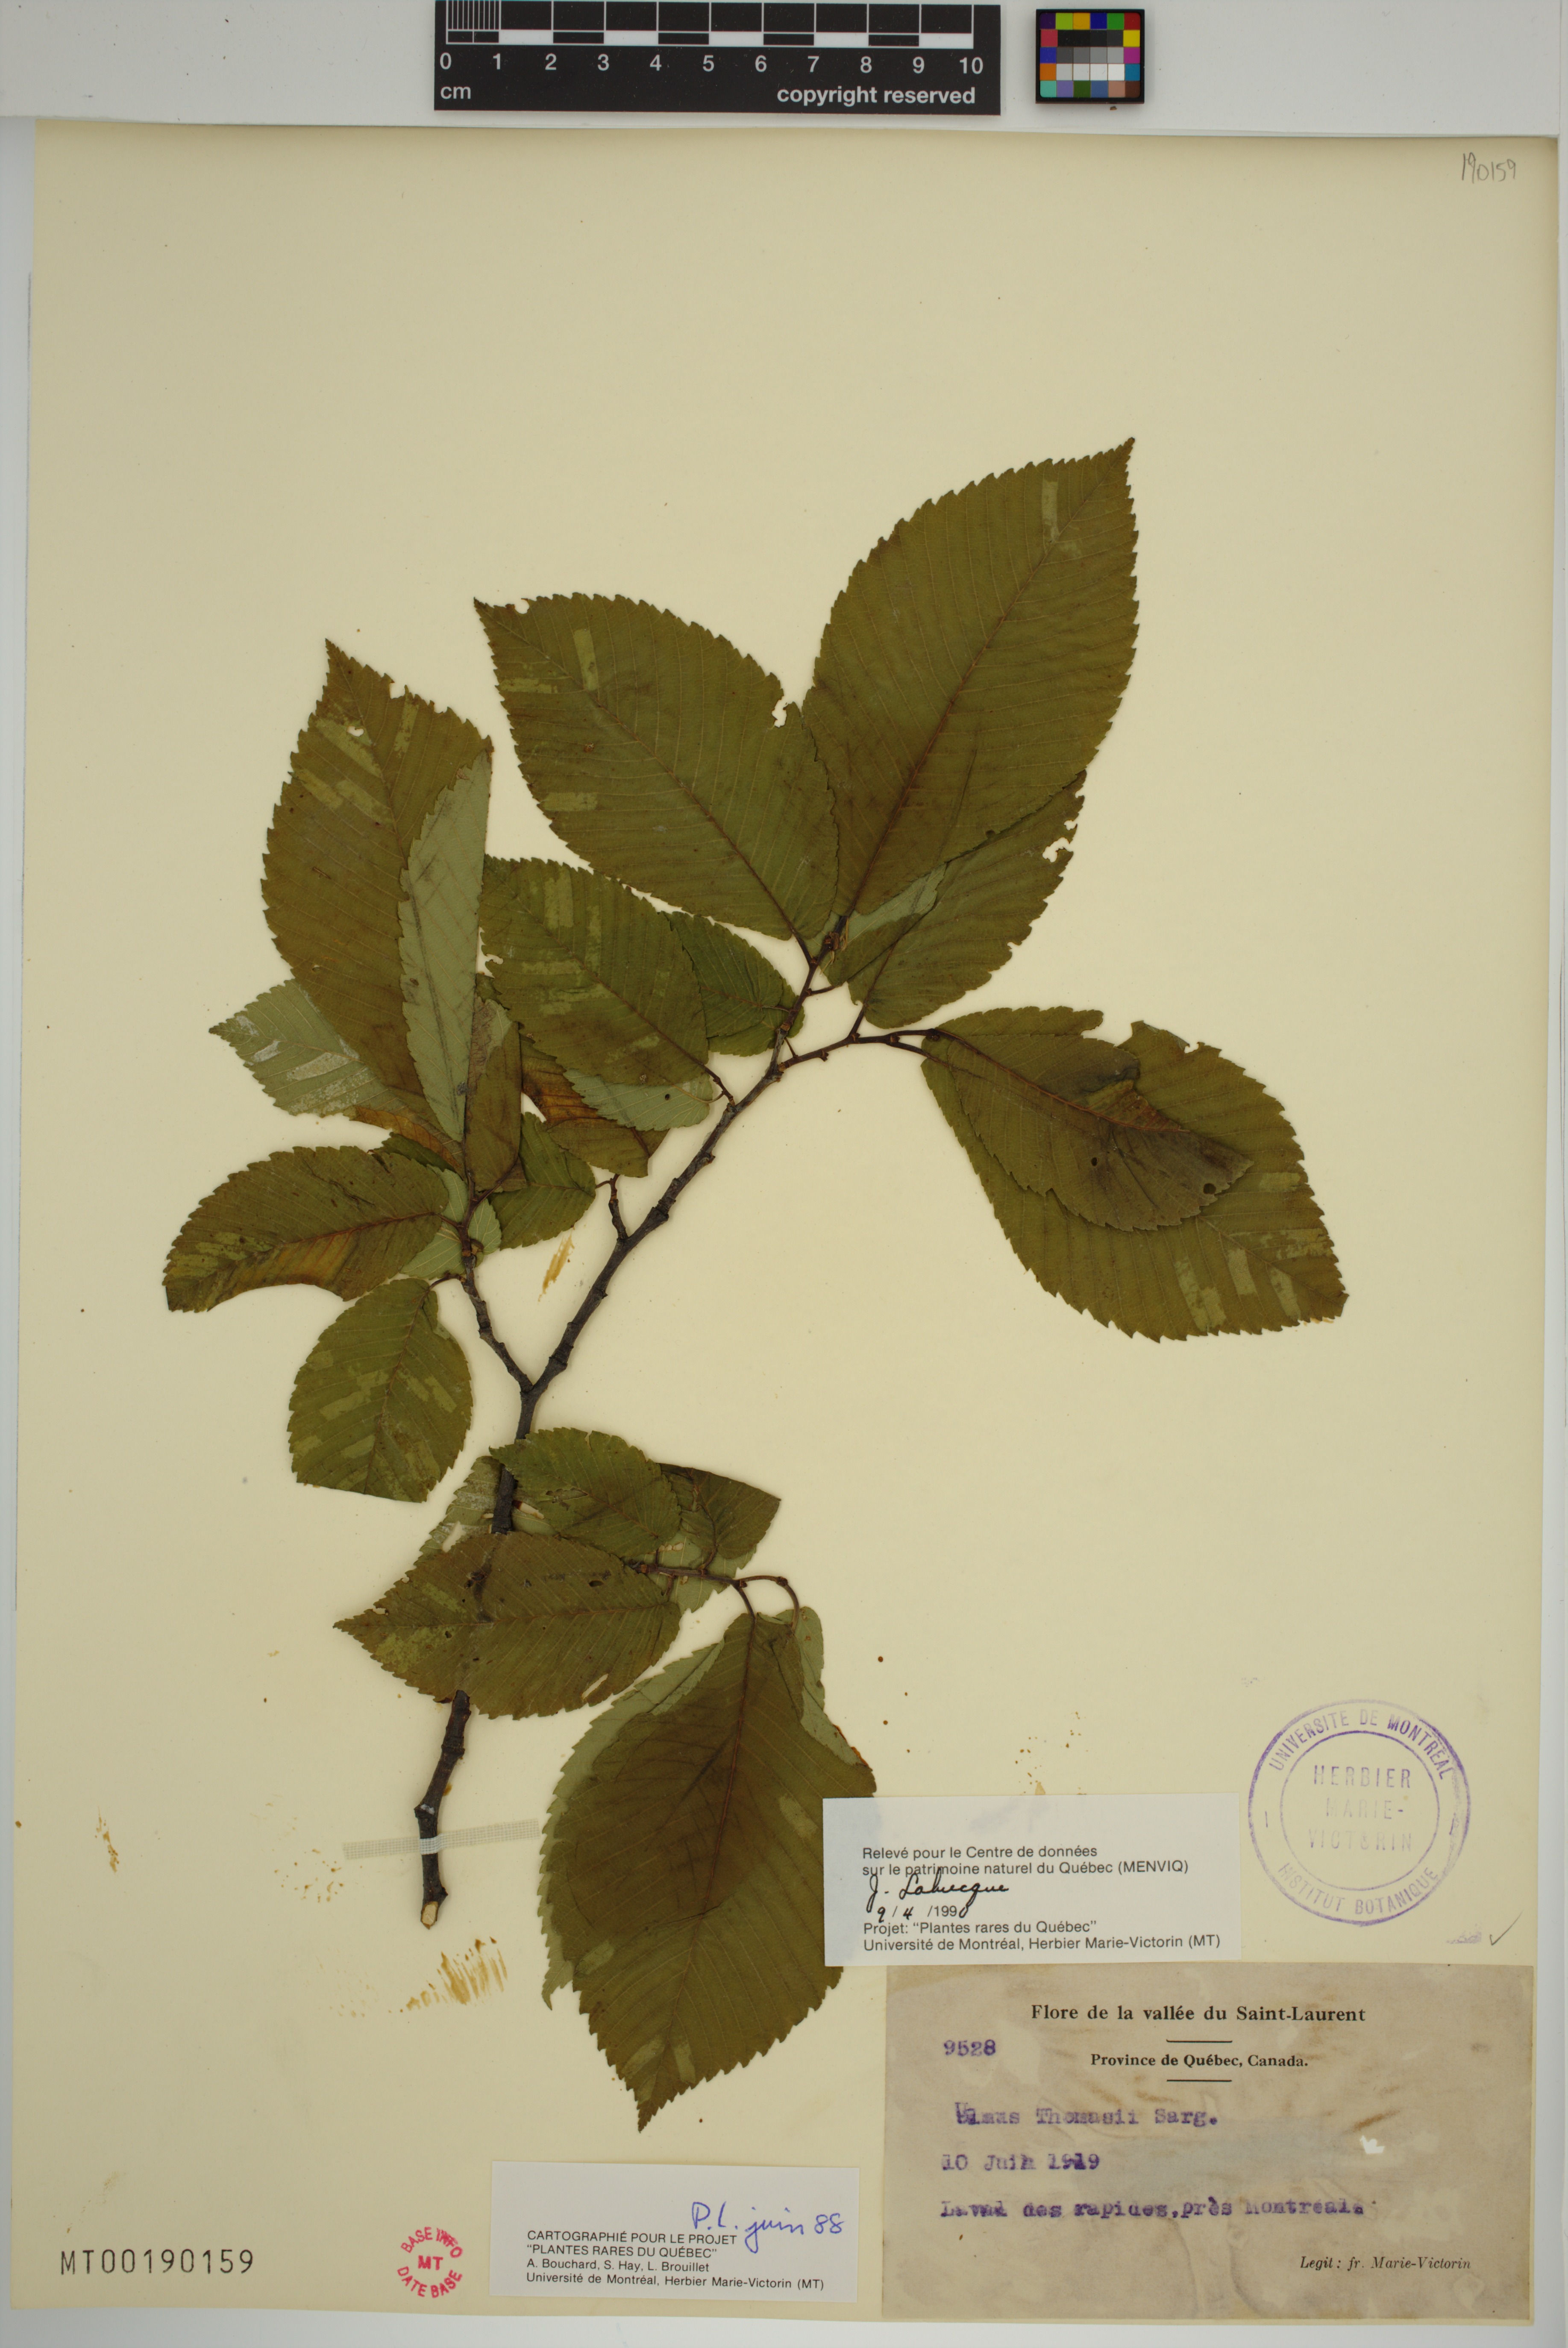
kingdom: Plantae
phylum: Tracheophyta
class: Magnoliopsida
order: Rosales
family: Ulmaceae
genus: Ulmus
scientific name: Ulmus thomasii
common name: Rock elm
